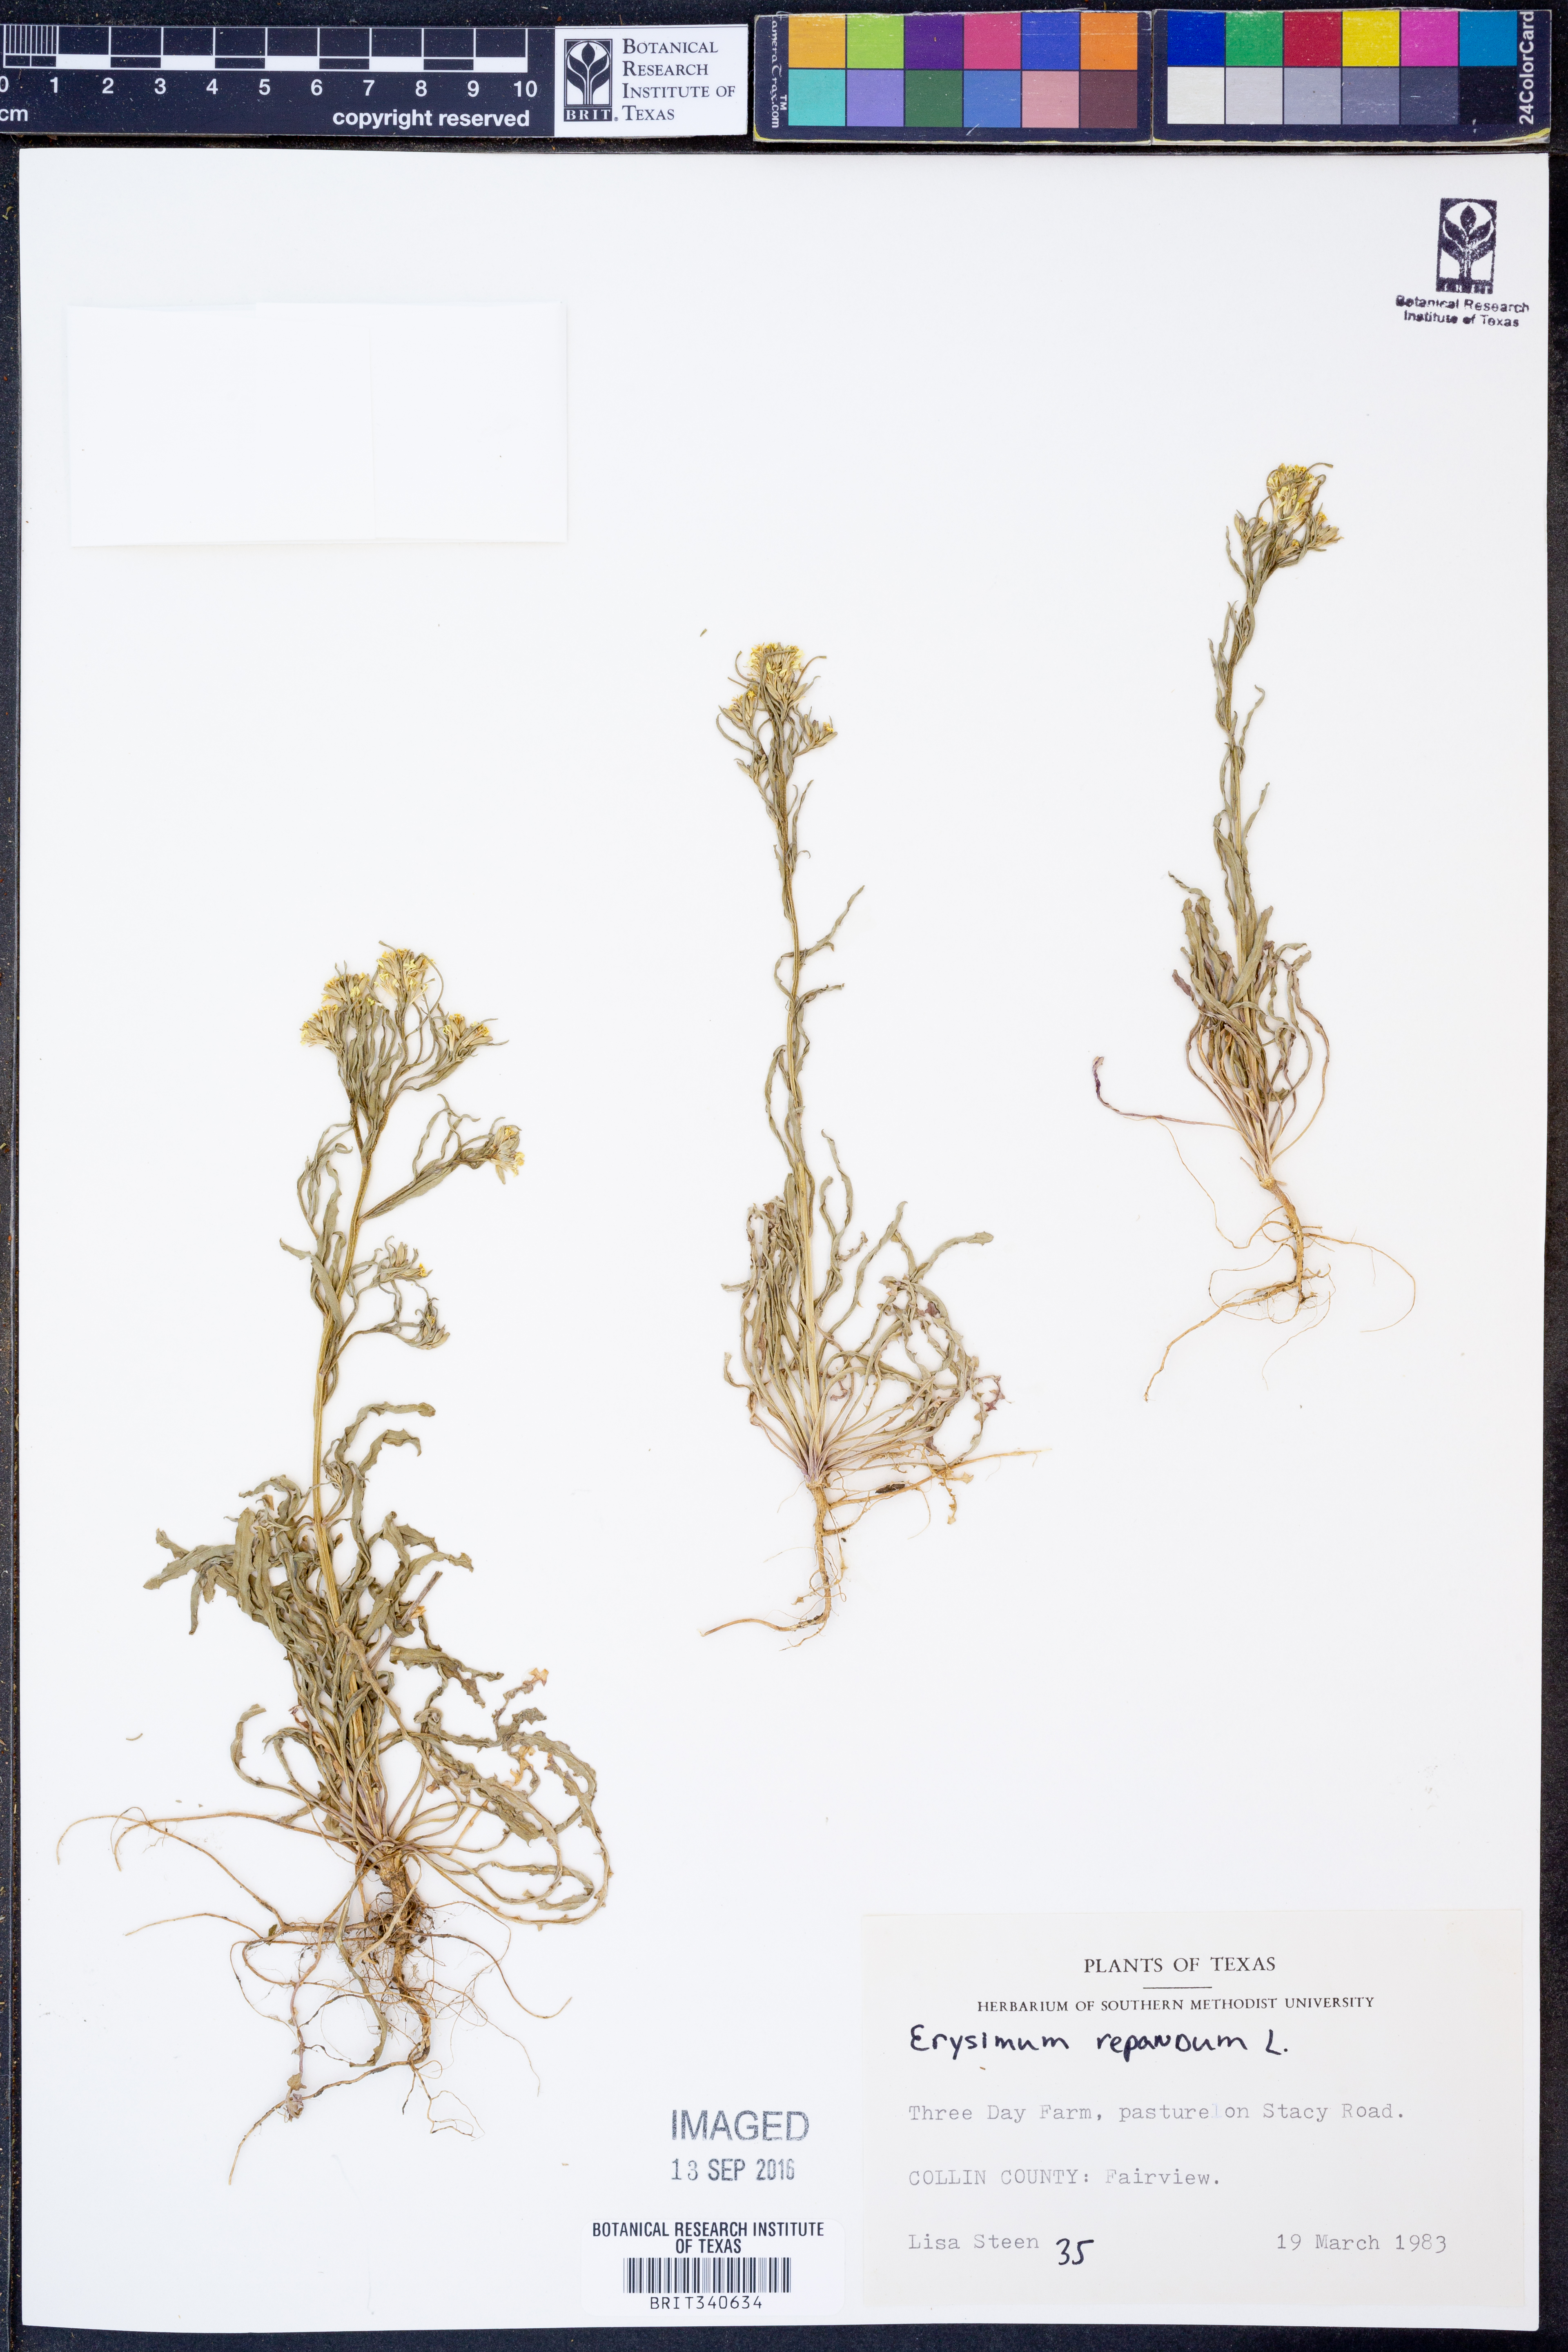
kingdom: Plantae
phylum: Tracheophyta
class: Magnoliopsida
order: Brassicales
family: Brassicaceae
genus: Erysimum
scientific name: Erysimum repandum
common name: Spreading wallflower
